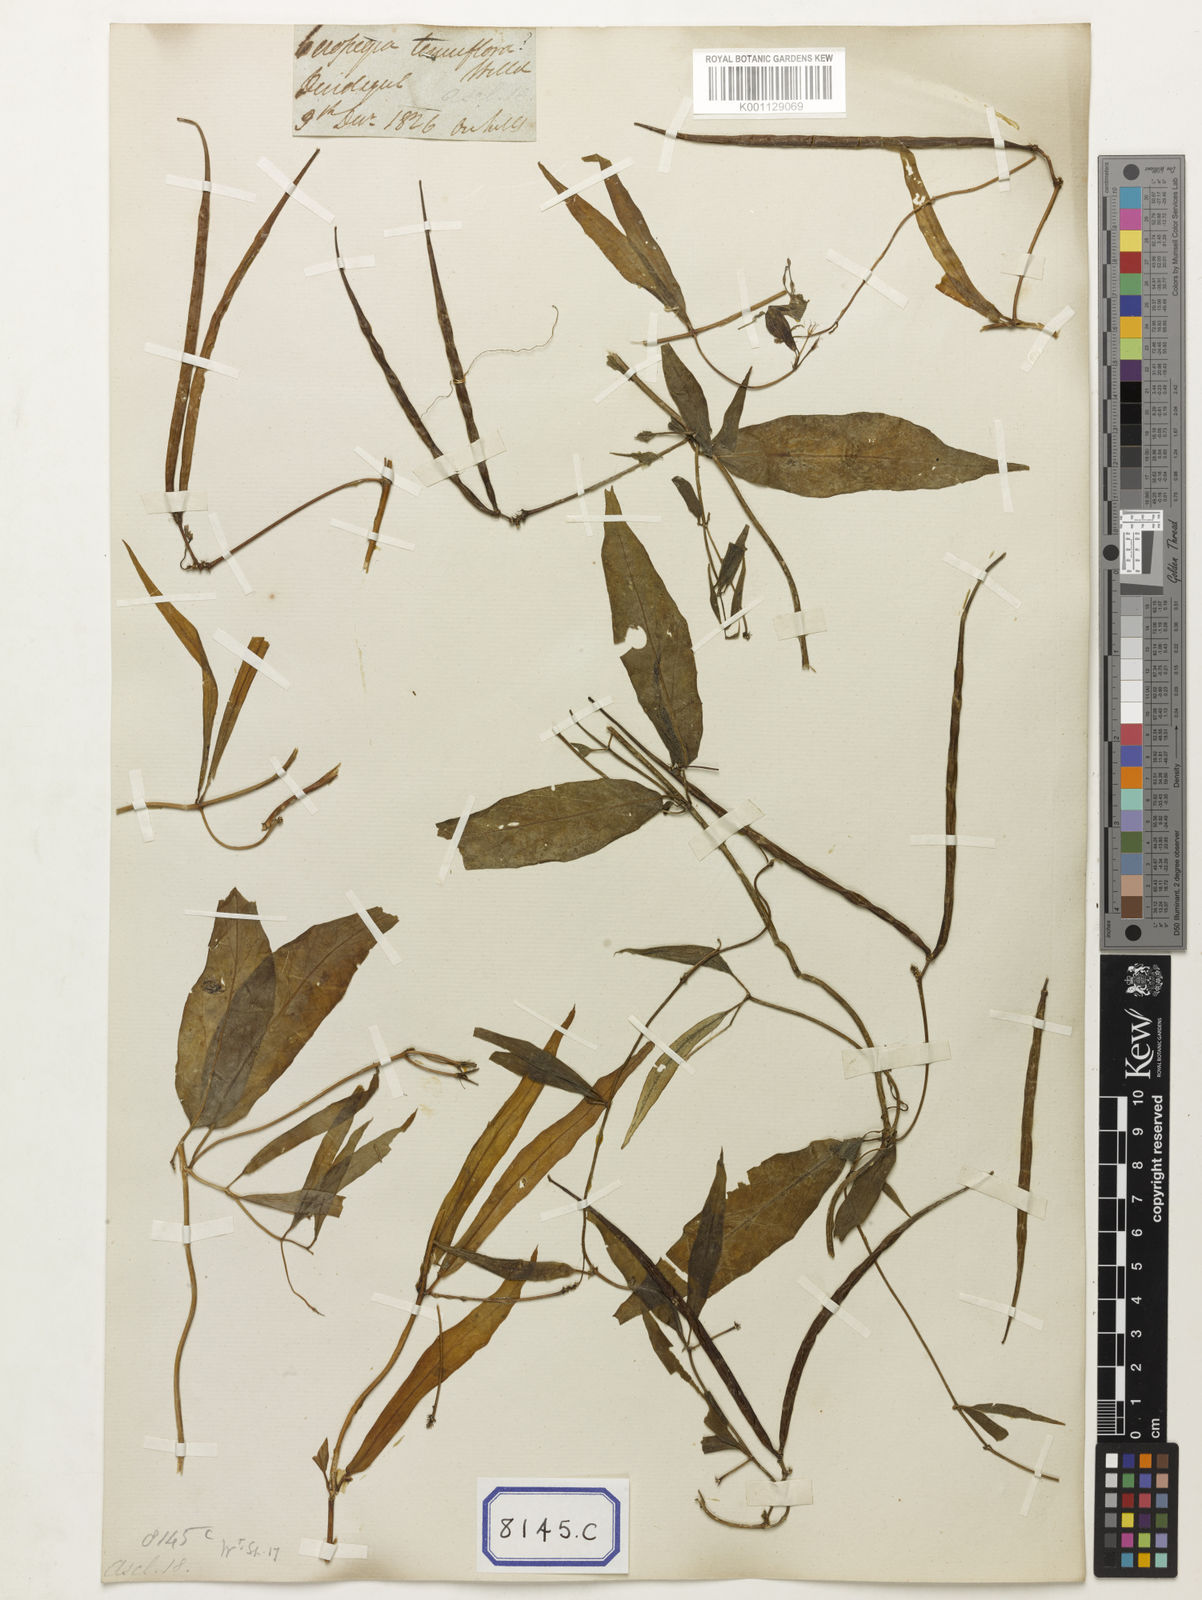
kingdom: Plantae
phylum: Tracheophyta
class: Magnoliopsida
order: Gentianales
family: Apocynaceae
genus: Ceropegia
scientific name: Ceropegia
